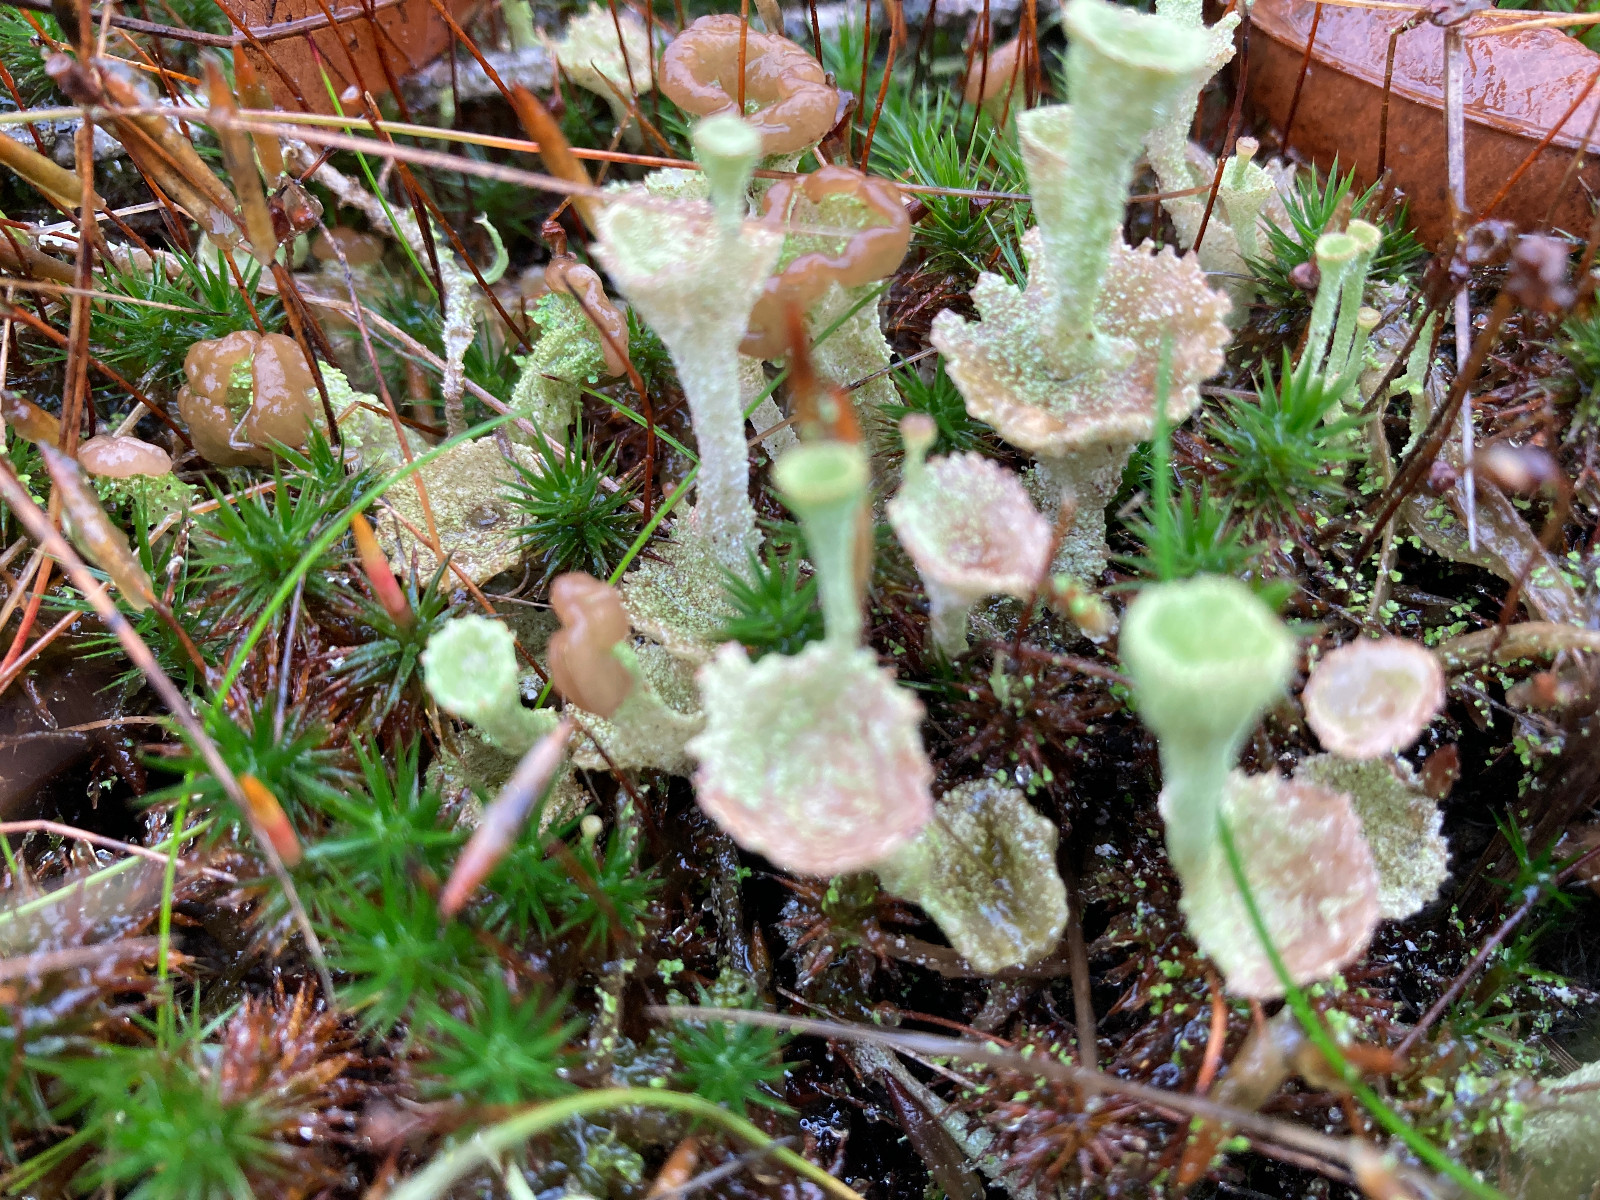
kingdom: Fungi
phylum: Ascomycota
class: Lecanoromycetes
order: Lecanorales
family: Cladoniaceae
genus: Cladonia
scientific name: Cladonia
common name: brungrøn bægerlav
